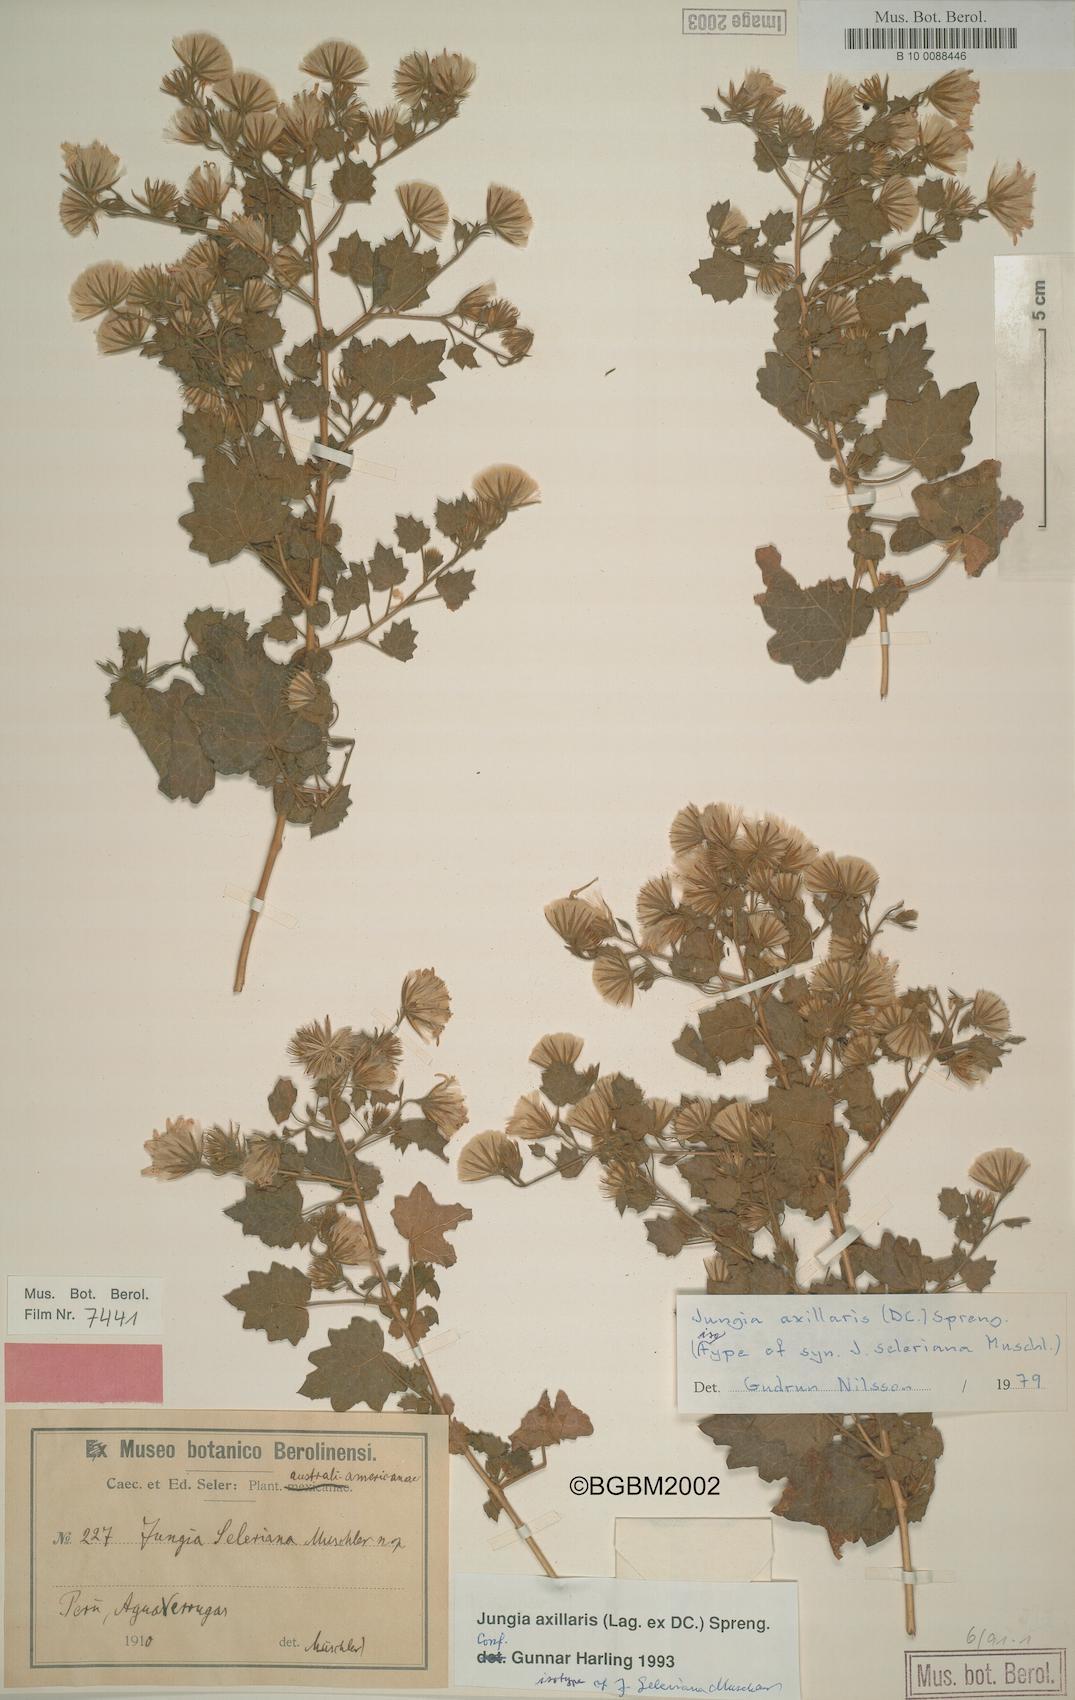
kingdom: Plantae
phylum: Tracheophyta
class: Magnoliopsida
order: Asterales
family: Asteraceae
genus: Jungia
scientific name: Jungia axillaris
